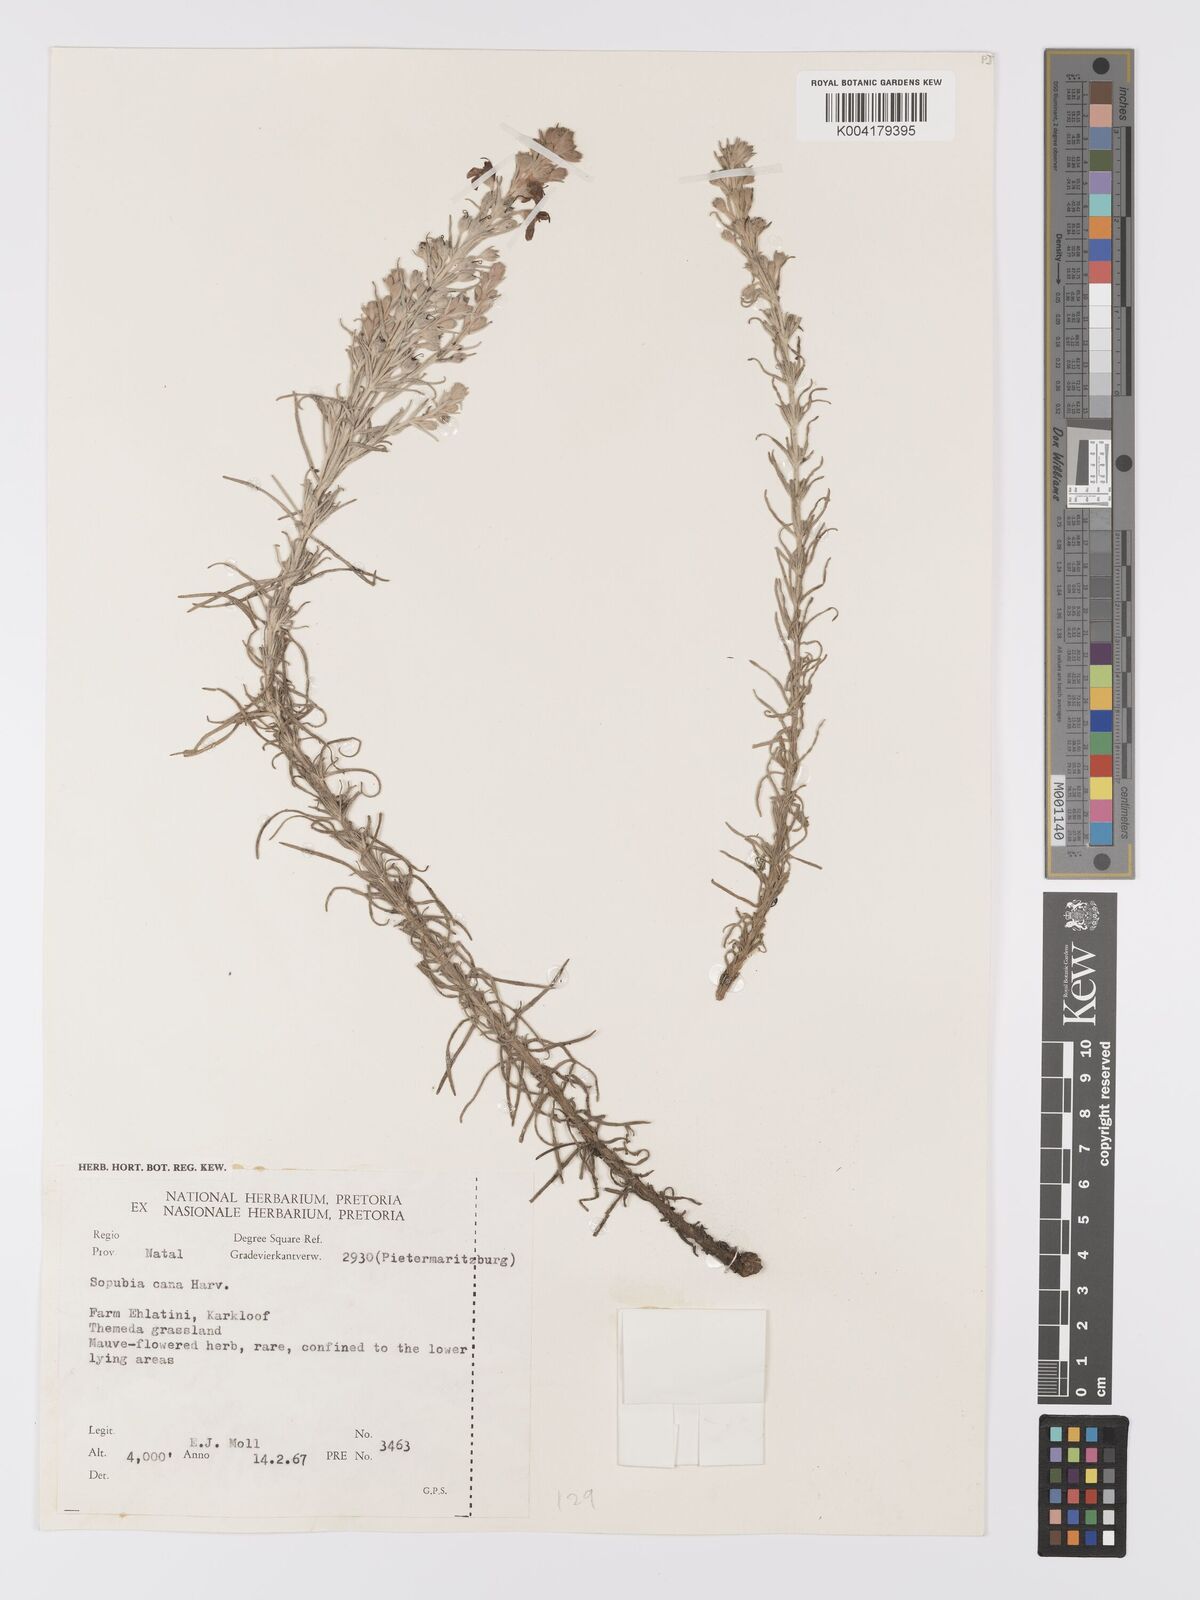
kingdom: Plantae
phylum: Tracheophyta
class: Magnoliopsida
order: Lamiales
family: Orobanchaceae
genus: Sopubia
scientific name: Sopubia cana
